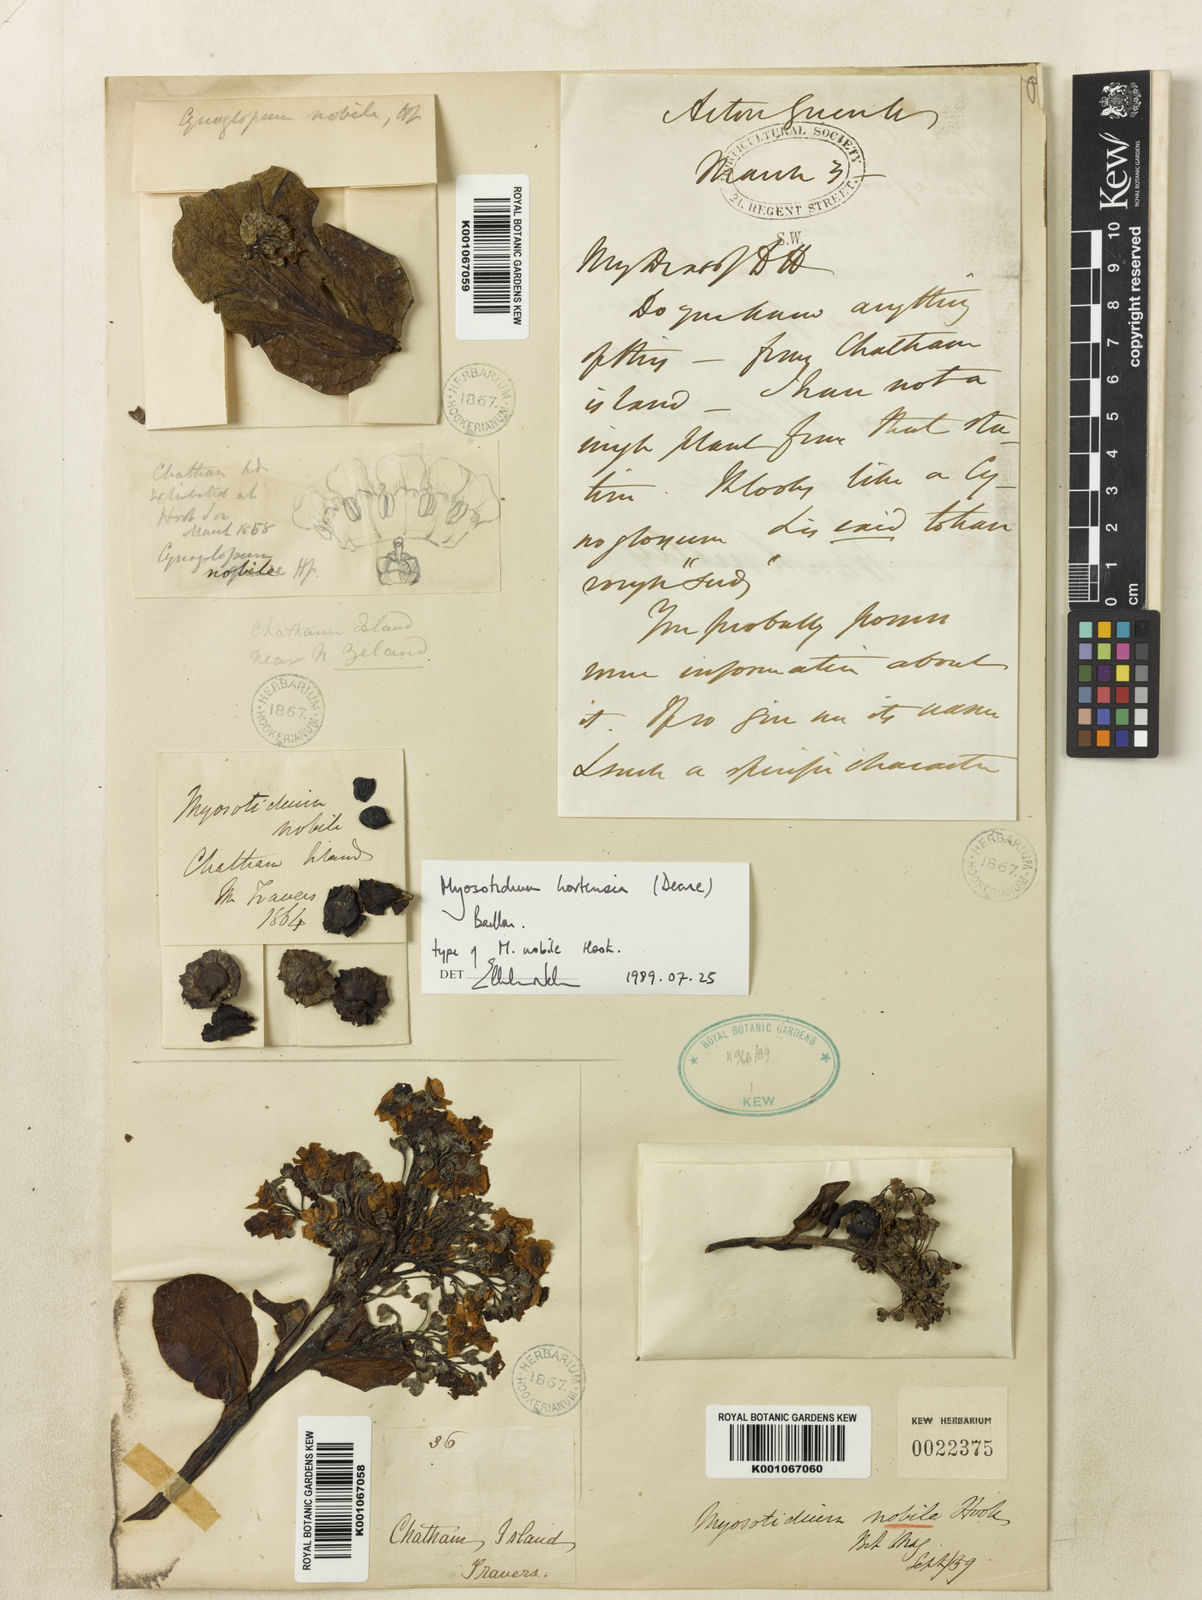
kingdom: Plantae
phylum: Tracheophyta
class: Magnoliopsida
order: Boraginales
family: Boraginaceae
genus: Myosotidium
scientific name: Myosotidium hortensia
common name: Giant forget-me-not
